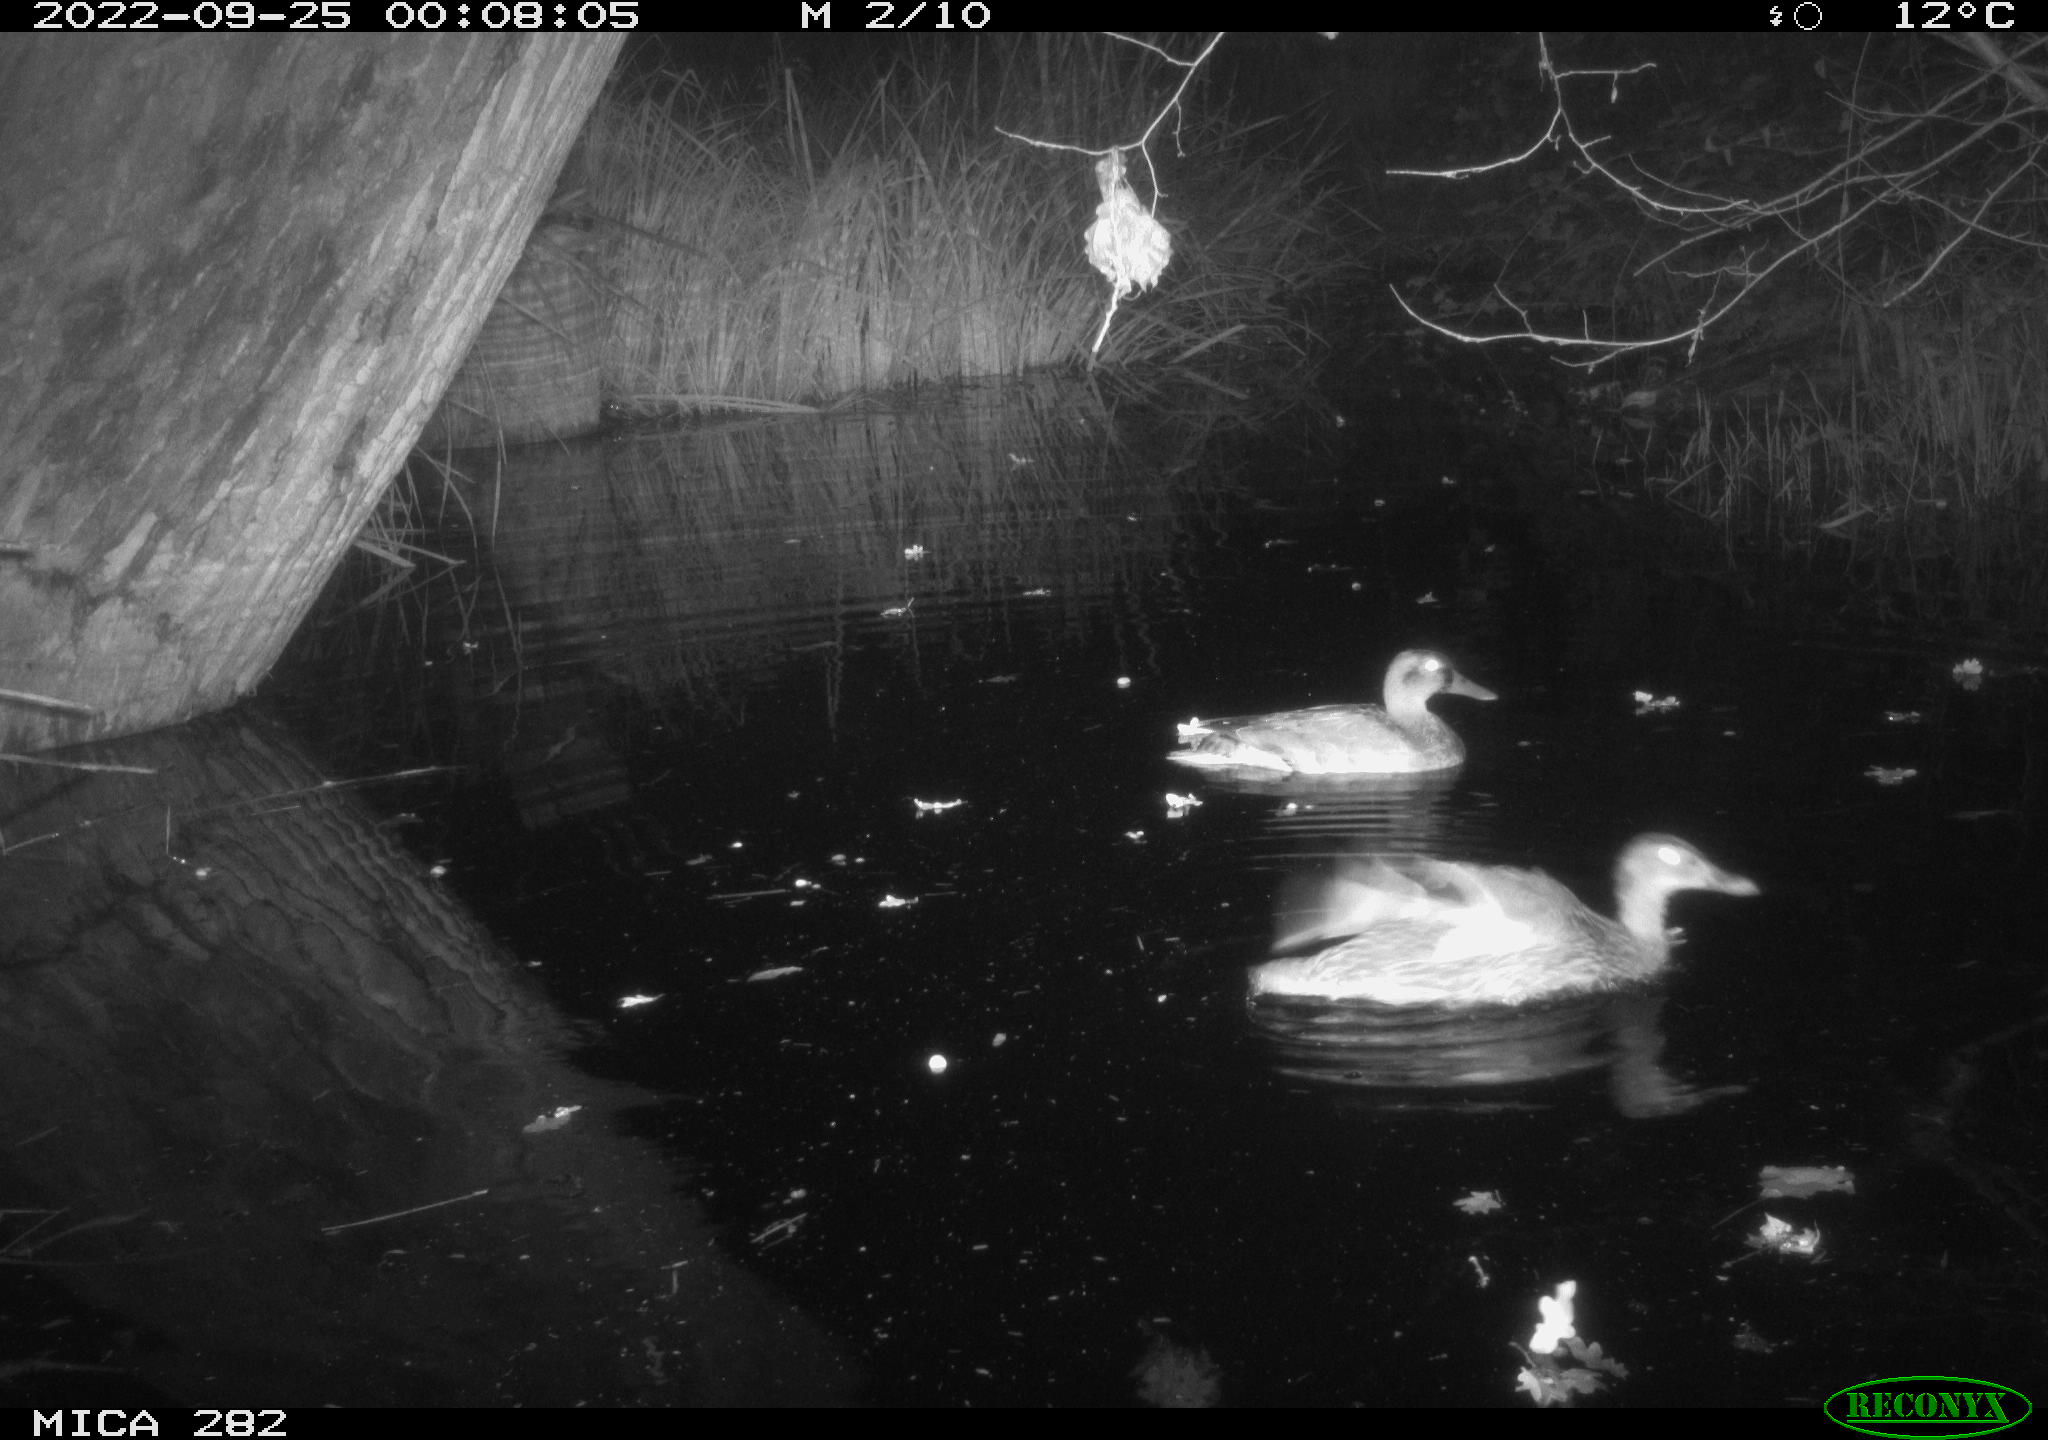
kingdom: Animalia
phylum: Chordata
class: Aves
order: Anseriformes
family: Anatidae
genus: Anas
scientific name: Anas
